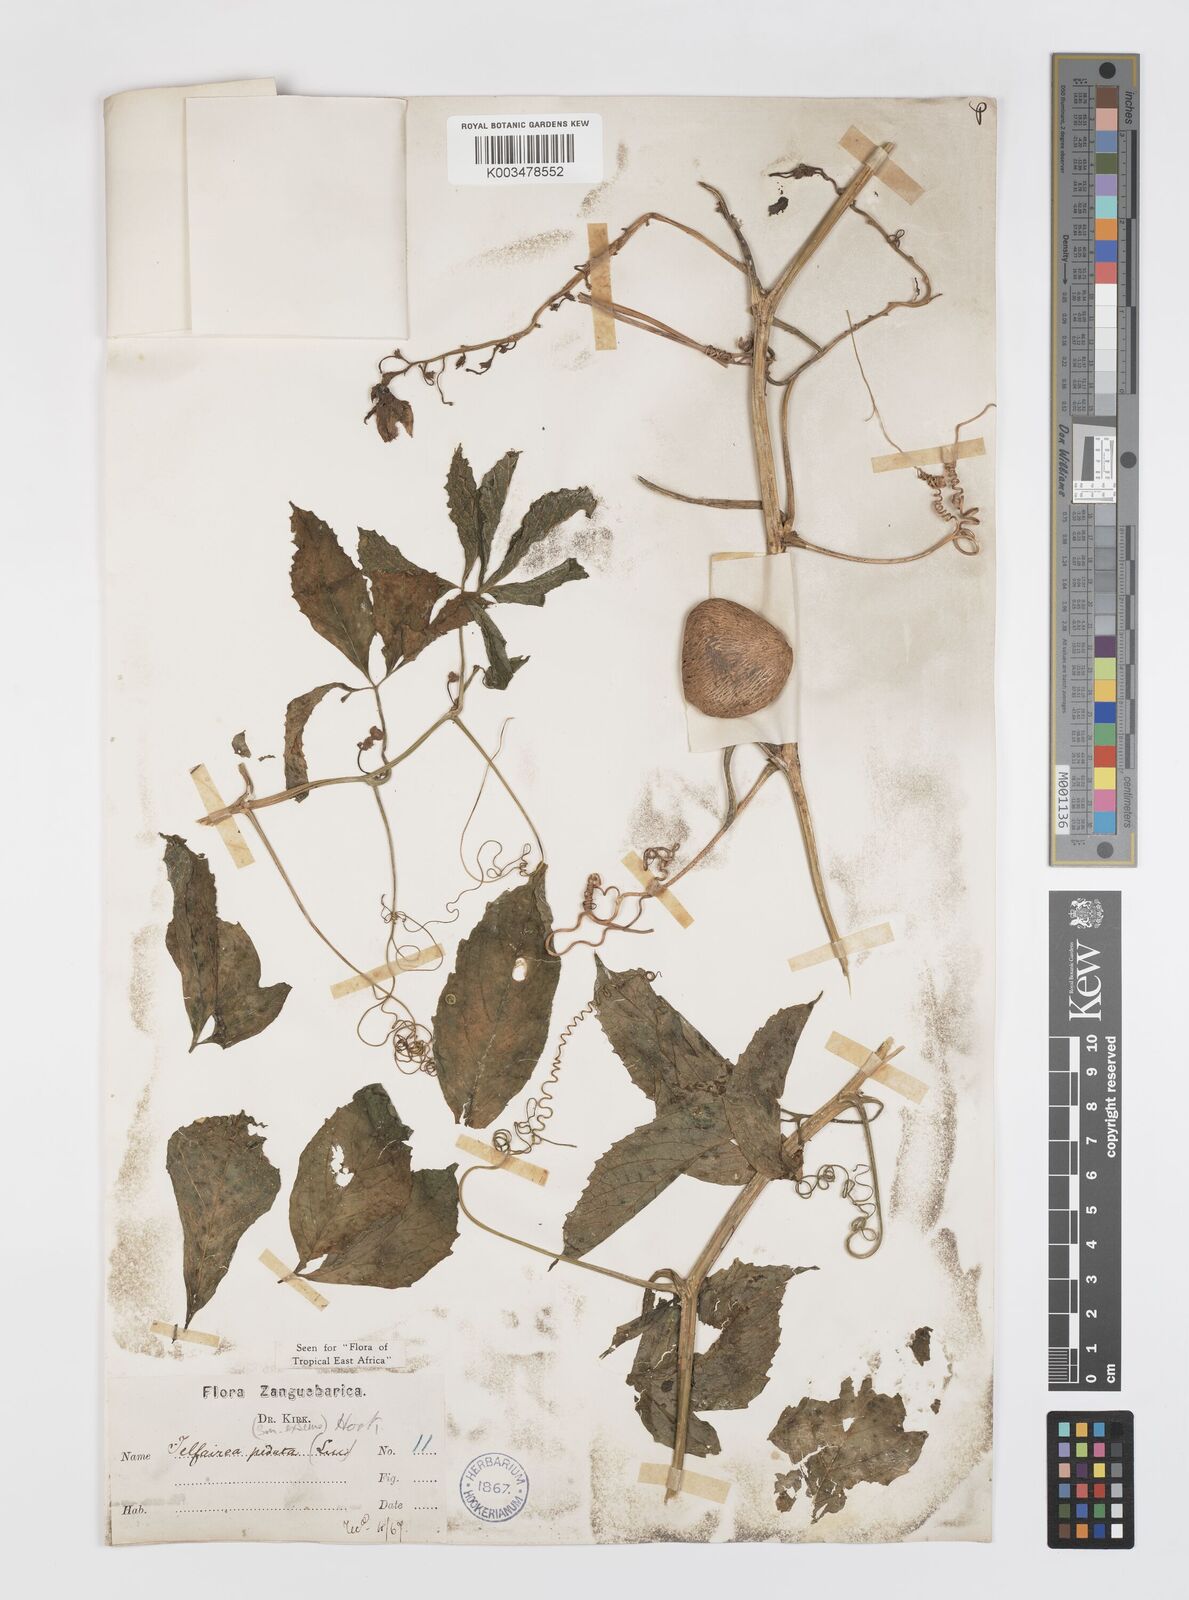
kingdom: Plantae
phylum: Tracheophyta
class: Magnoliopsida
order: Cucurbitales
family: Cucurbitaceae
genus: Telfairia
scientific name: Telfairia pedata
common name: Zanzibar oilvine
